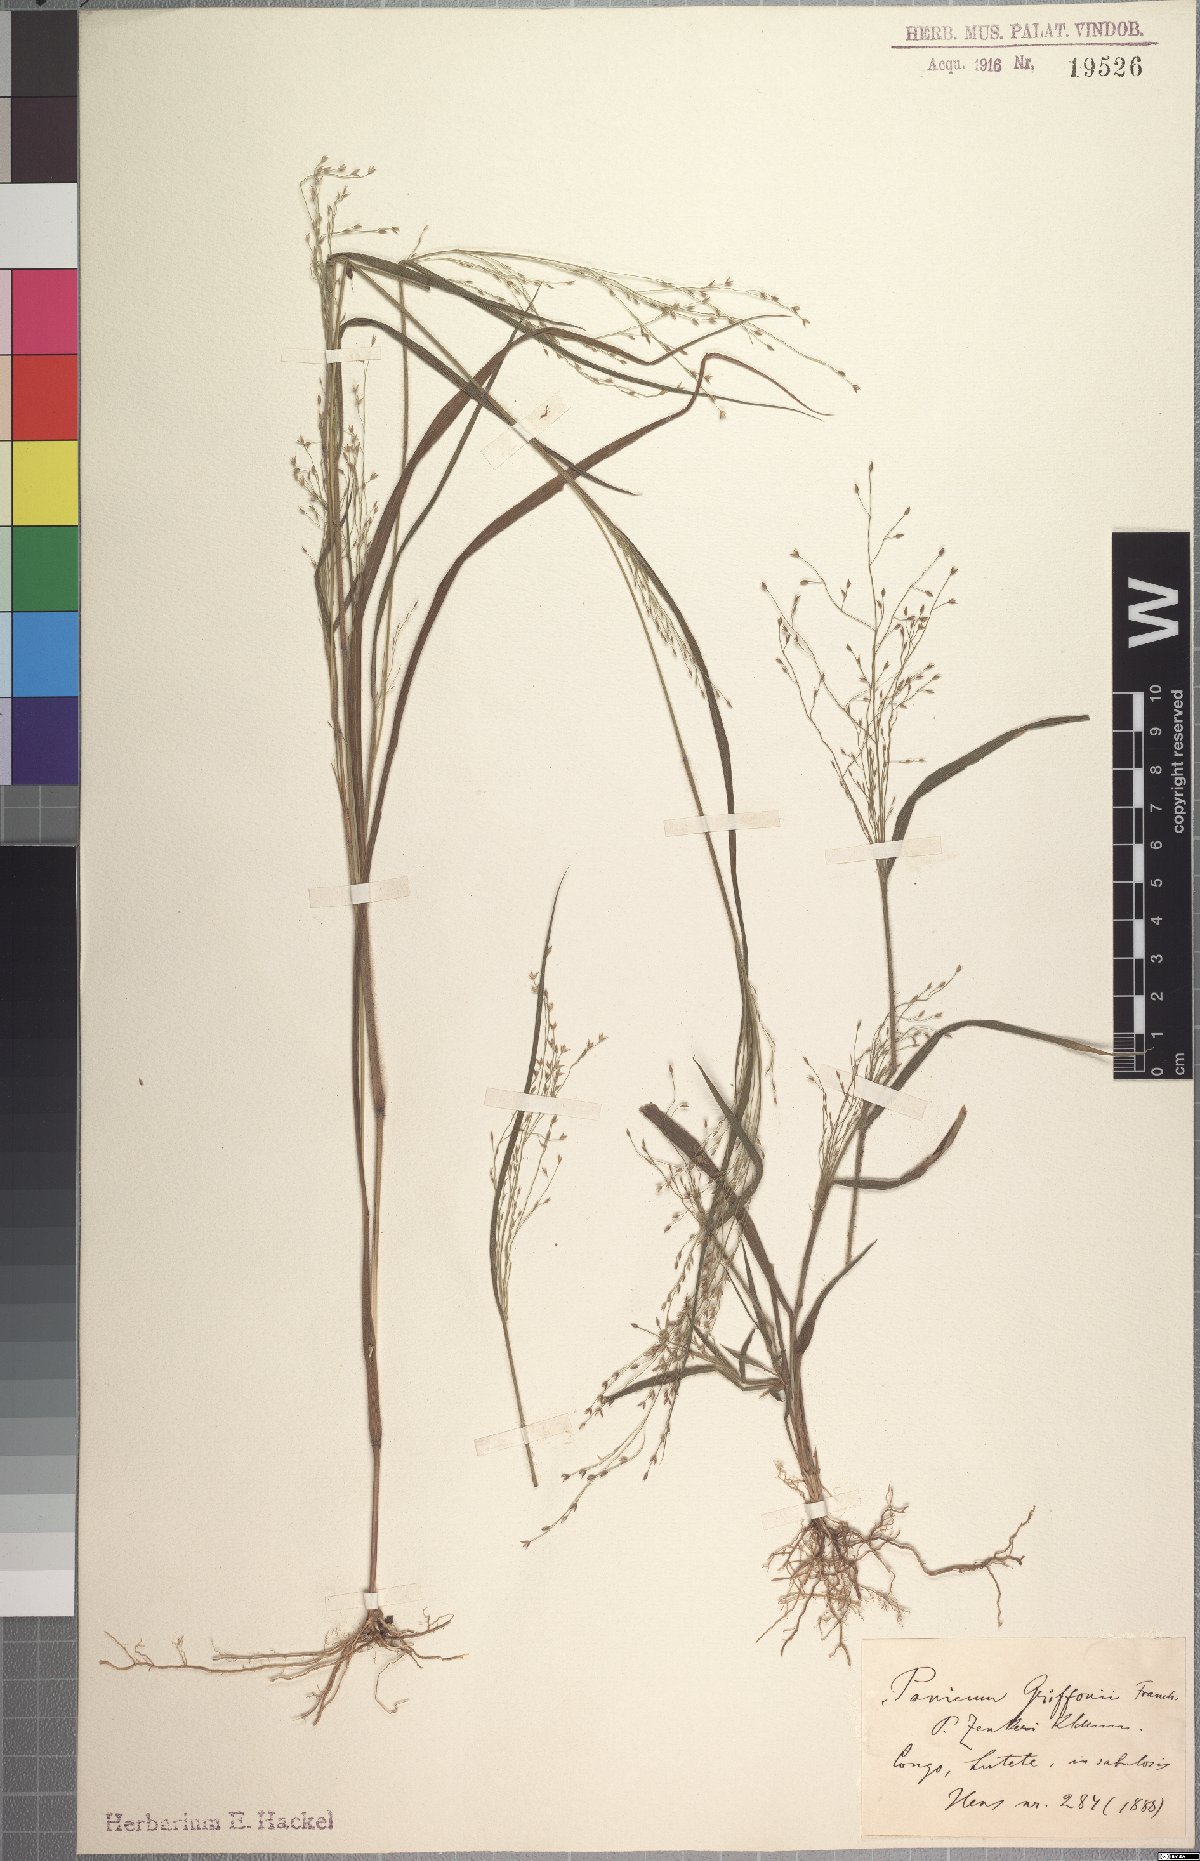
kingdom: Plantae
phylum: Tracheophyta
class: Liliopsida
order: Poales
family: Poaceae
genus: Panicum
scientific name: Panicum griffonii
